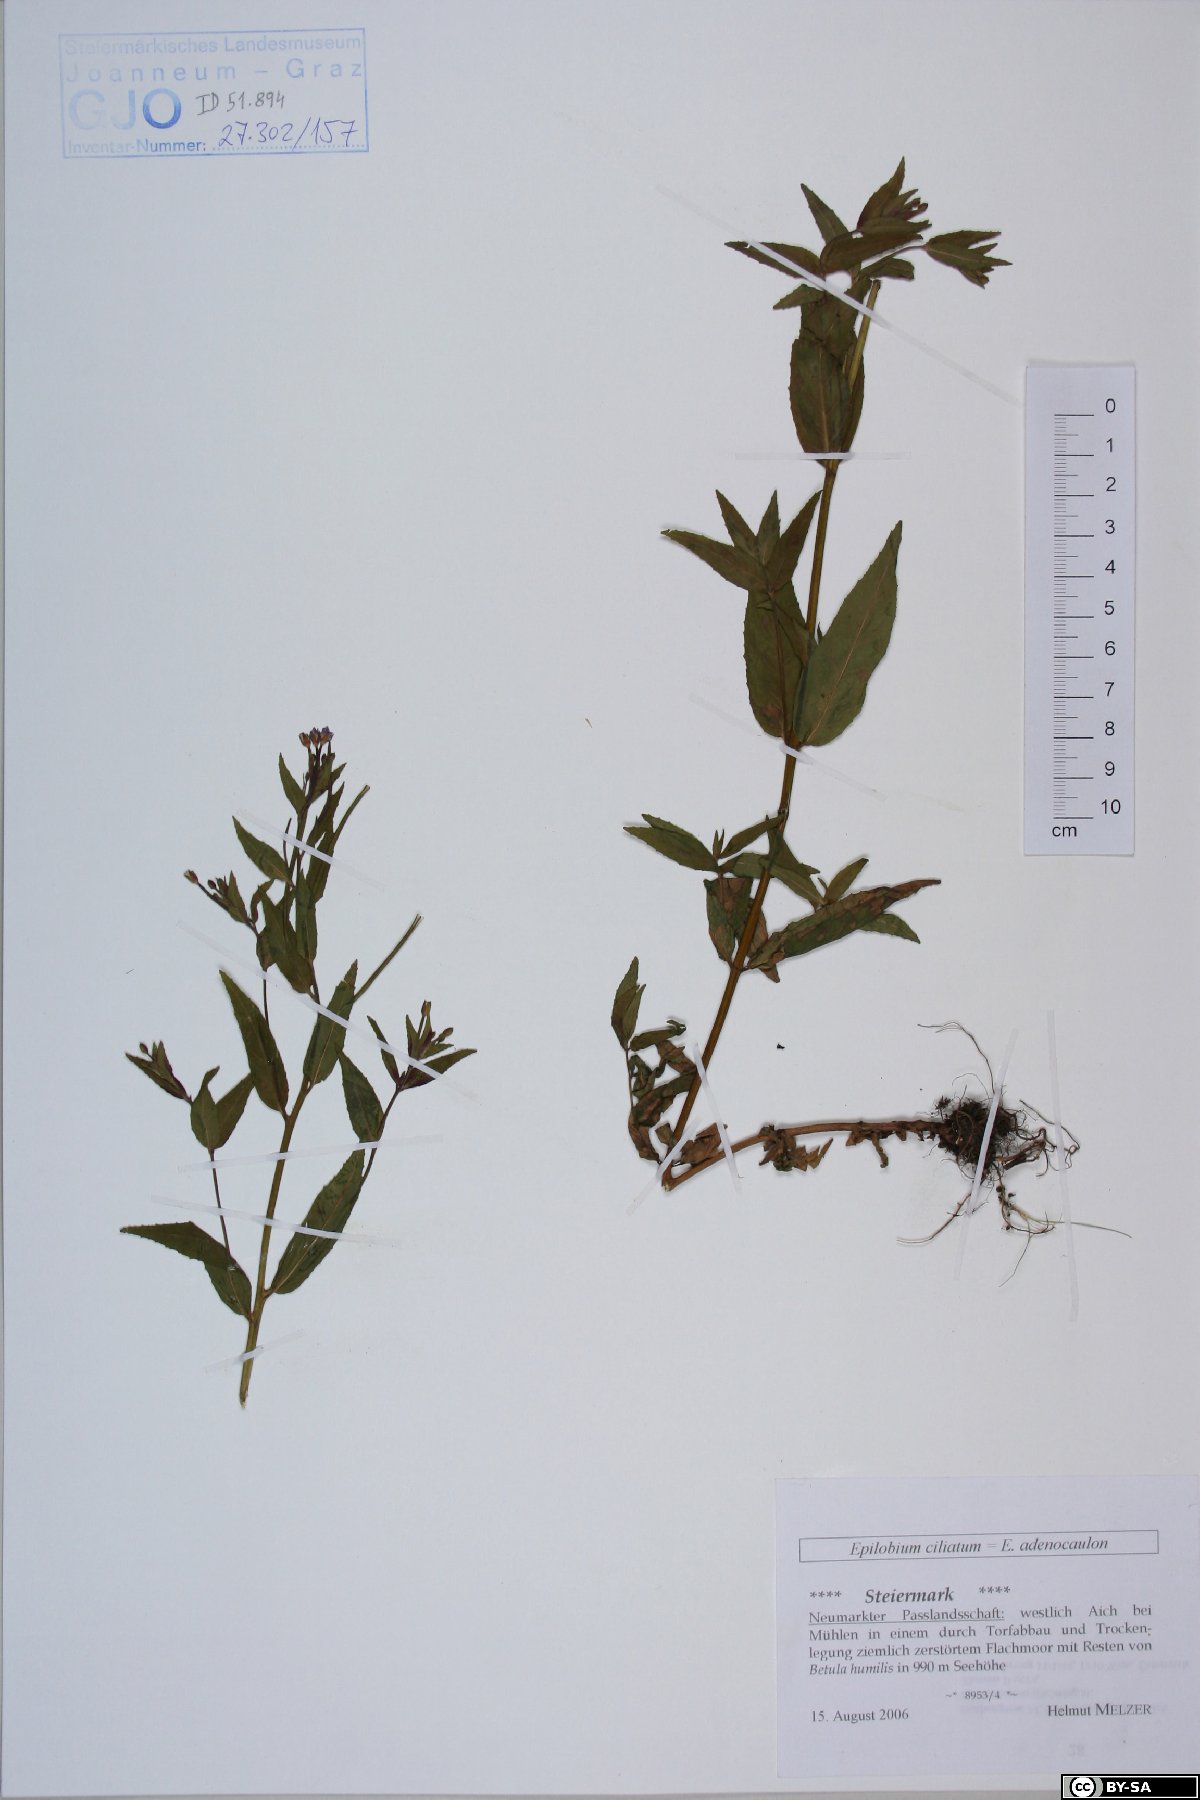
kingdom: Plantae
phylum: Tracheophyta
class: Magnoliopsida
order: Myrtales
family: Onagraceae
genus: Epilobium
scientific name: Epilobium ciliatum
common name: American willowherb
